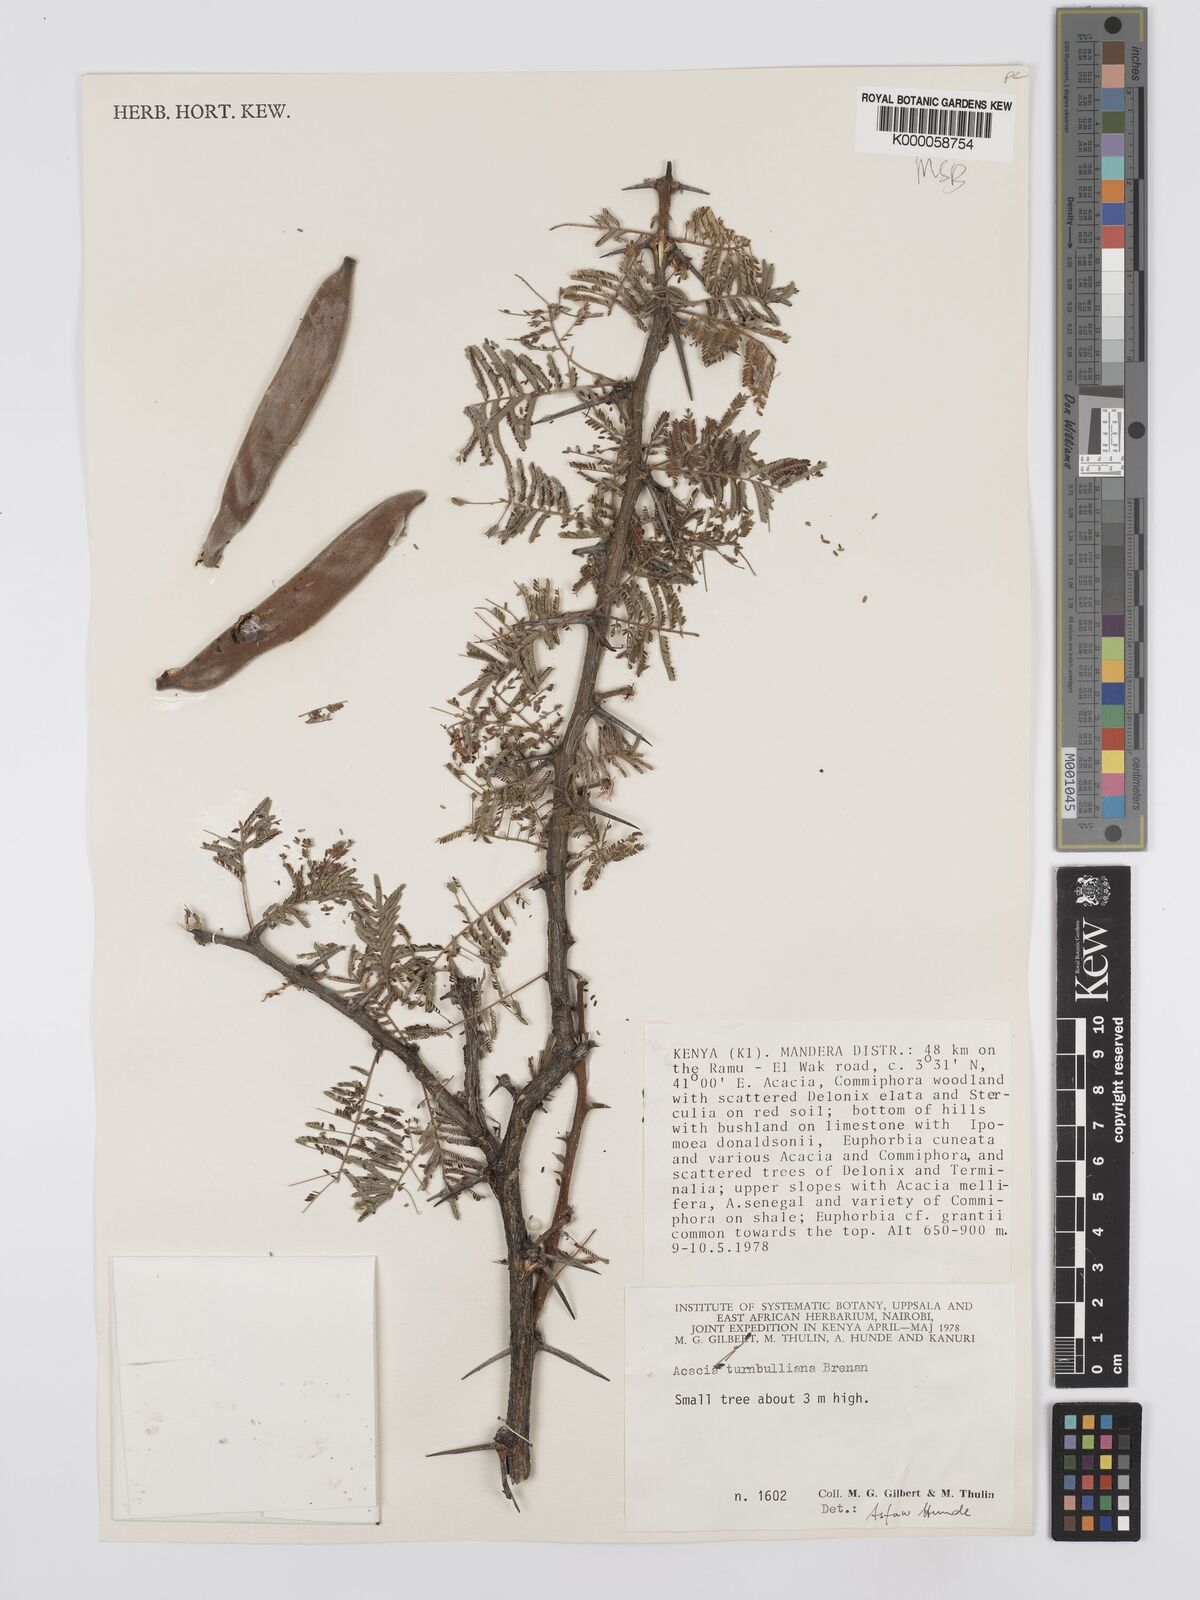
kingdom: Plantae
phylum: Tracheophyta
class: Magnoliopsida
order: Fabales
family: Fabaceae
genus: Vachellia
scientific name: Vachellia edgeworthii
